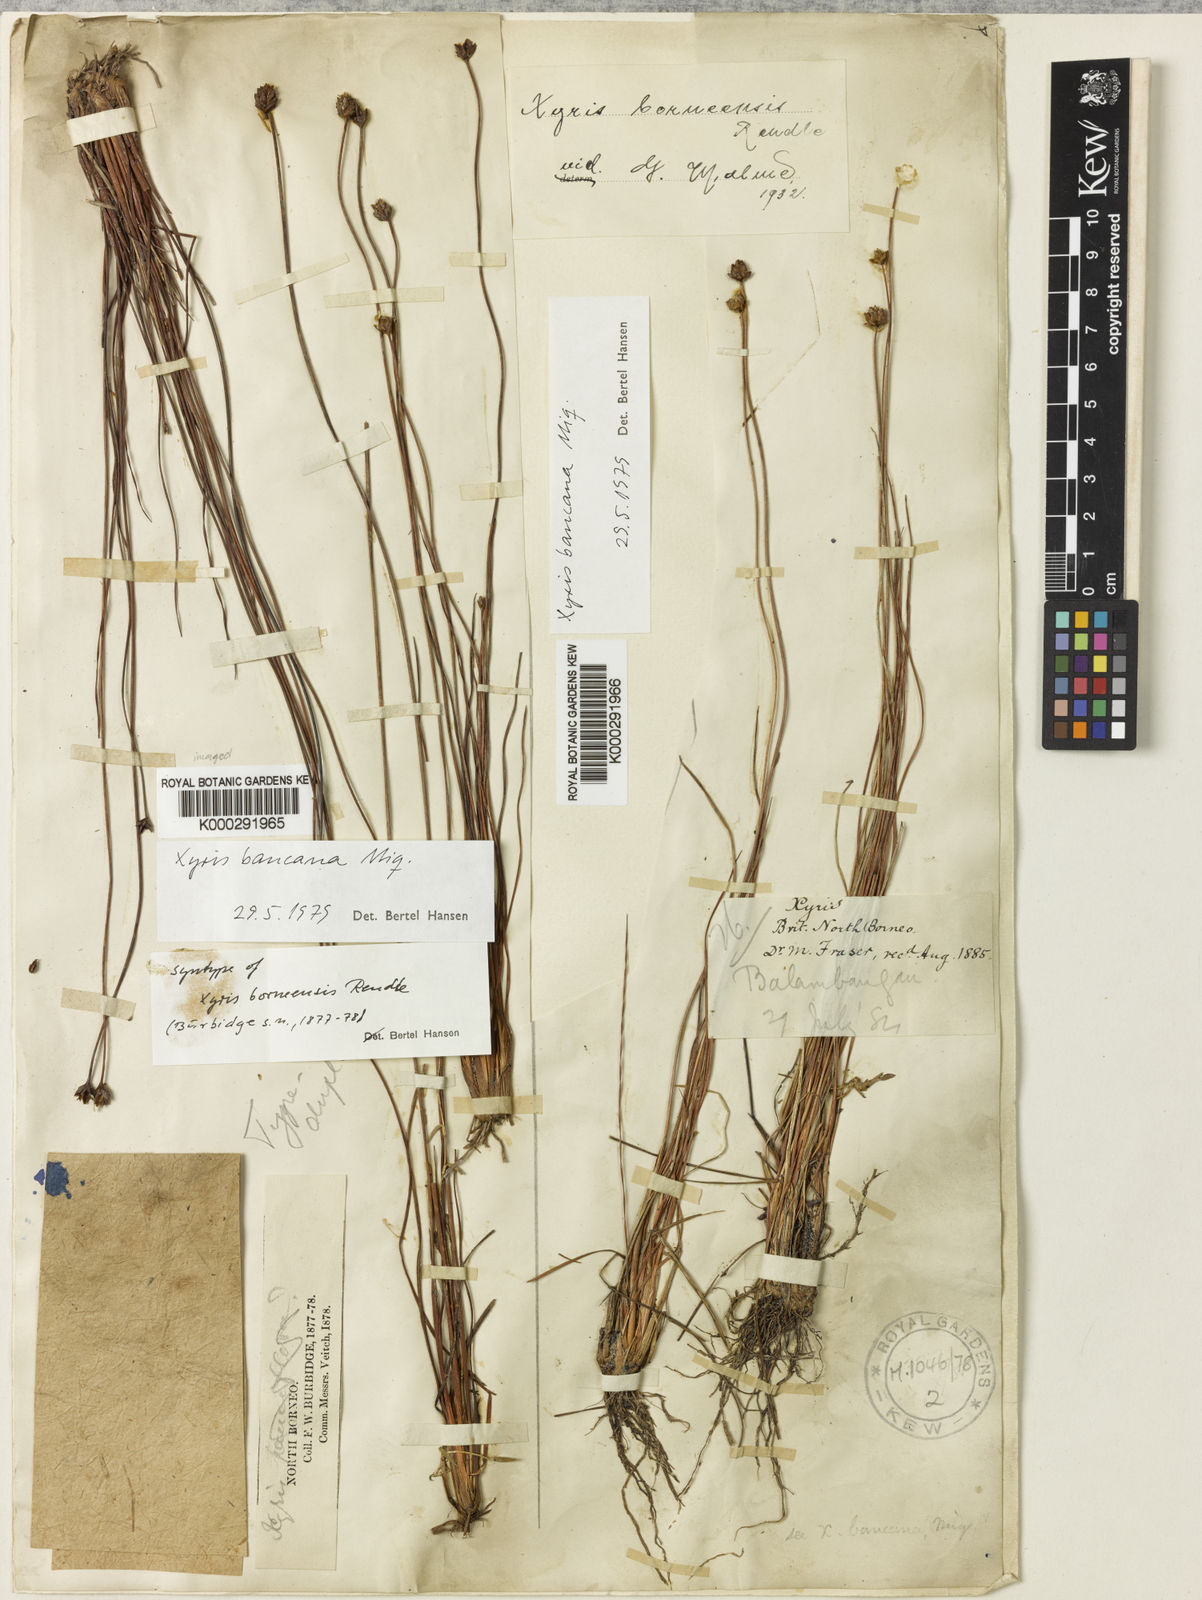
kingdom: Plantae
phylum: Tracheophyta
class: Liliopsida
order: Poales
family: Xyridaceae
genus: Xyris
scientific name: Xyris bancana
